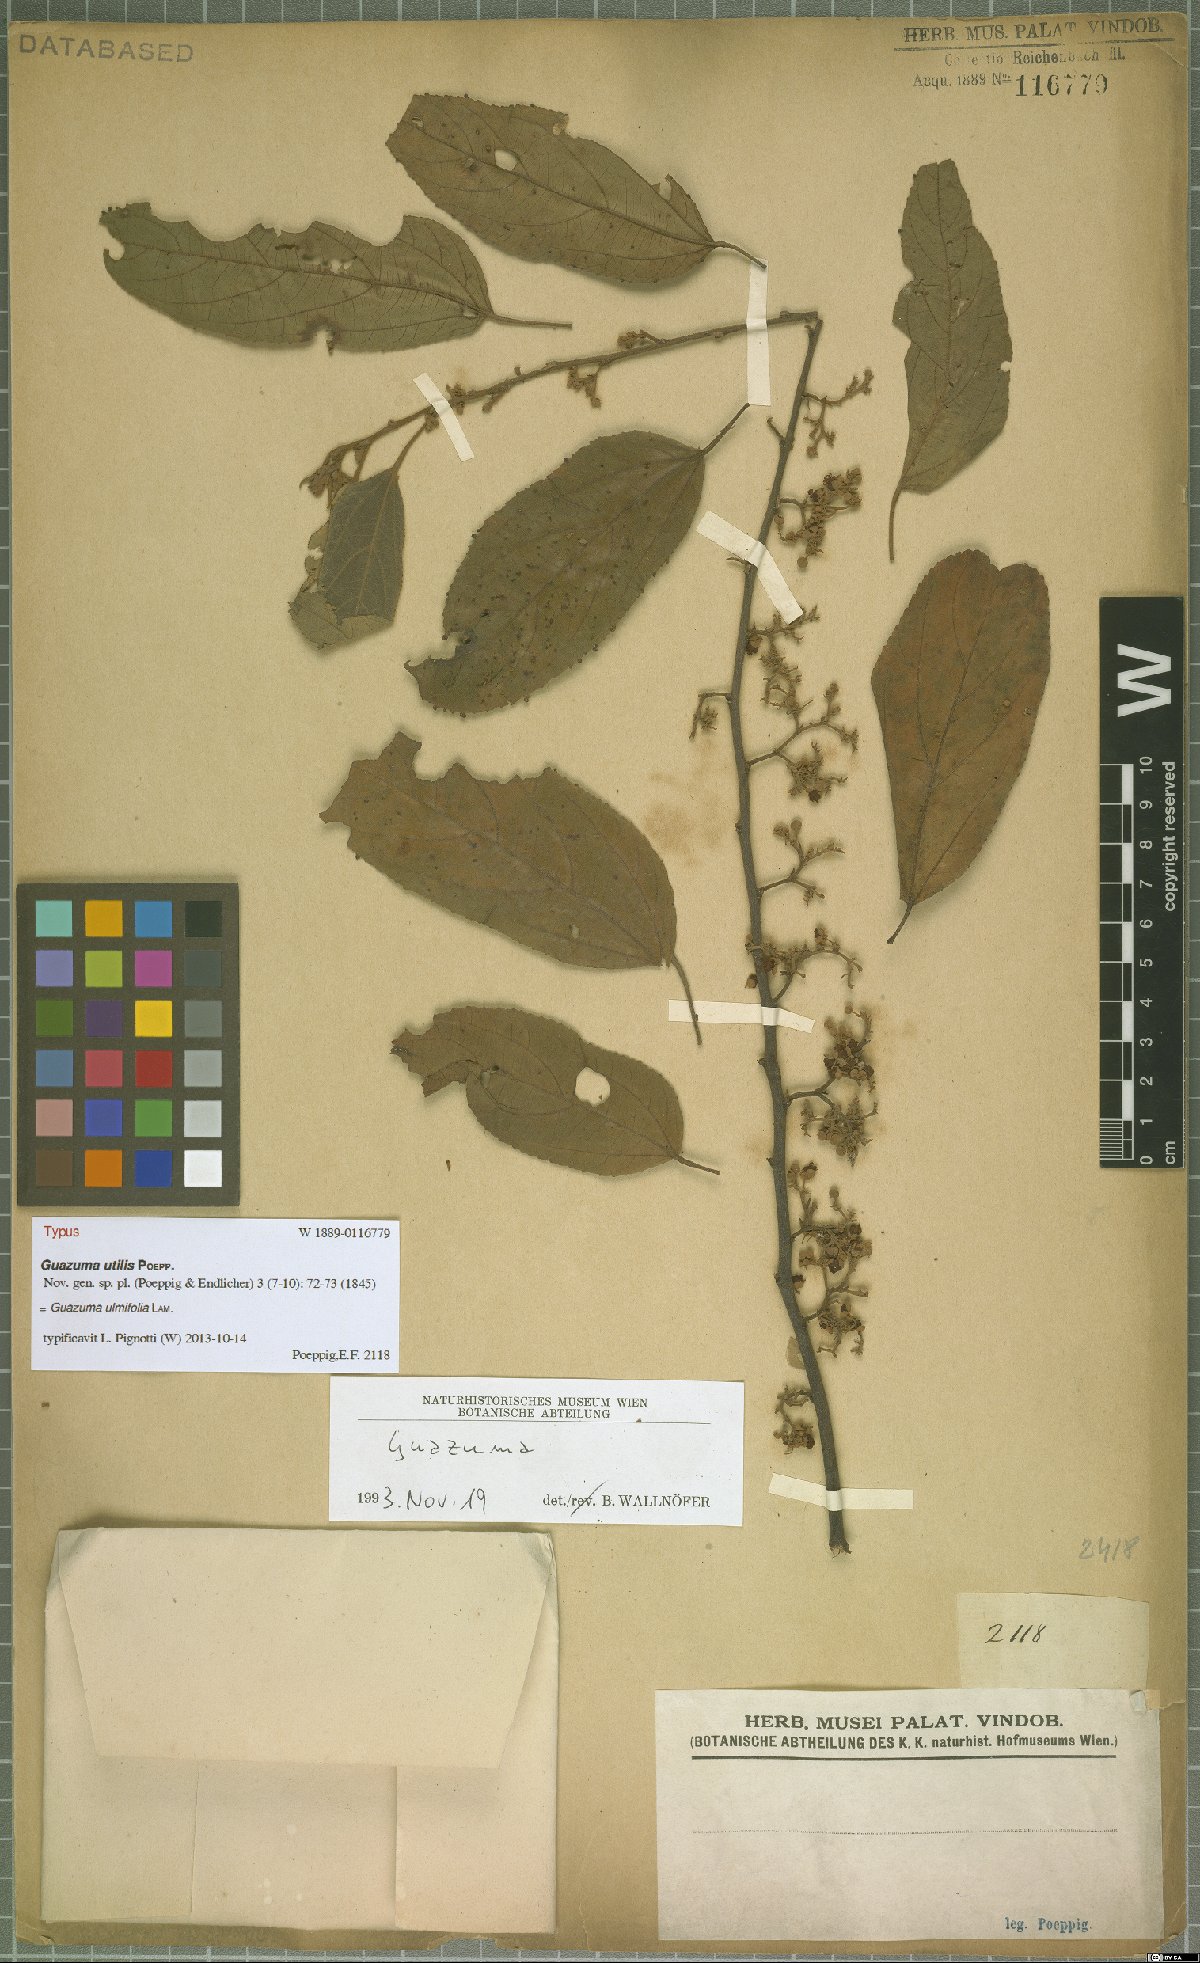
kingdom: Plantae
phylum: Tracheophyta
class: Magnoliopsida
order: Malvales
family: Malvaceae
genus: Guazuma
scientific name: Guazuma ulmifolia
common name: Bastard-cedar
